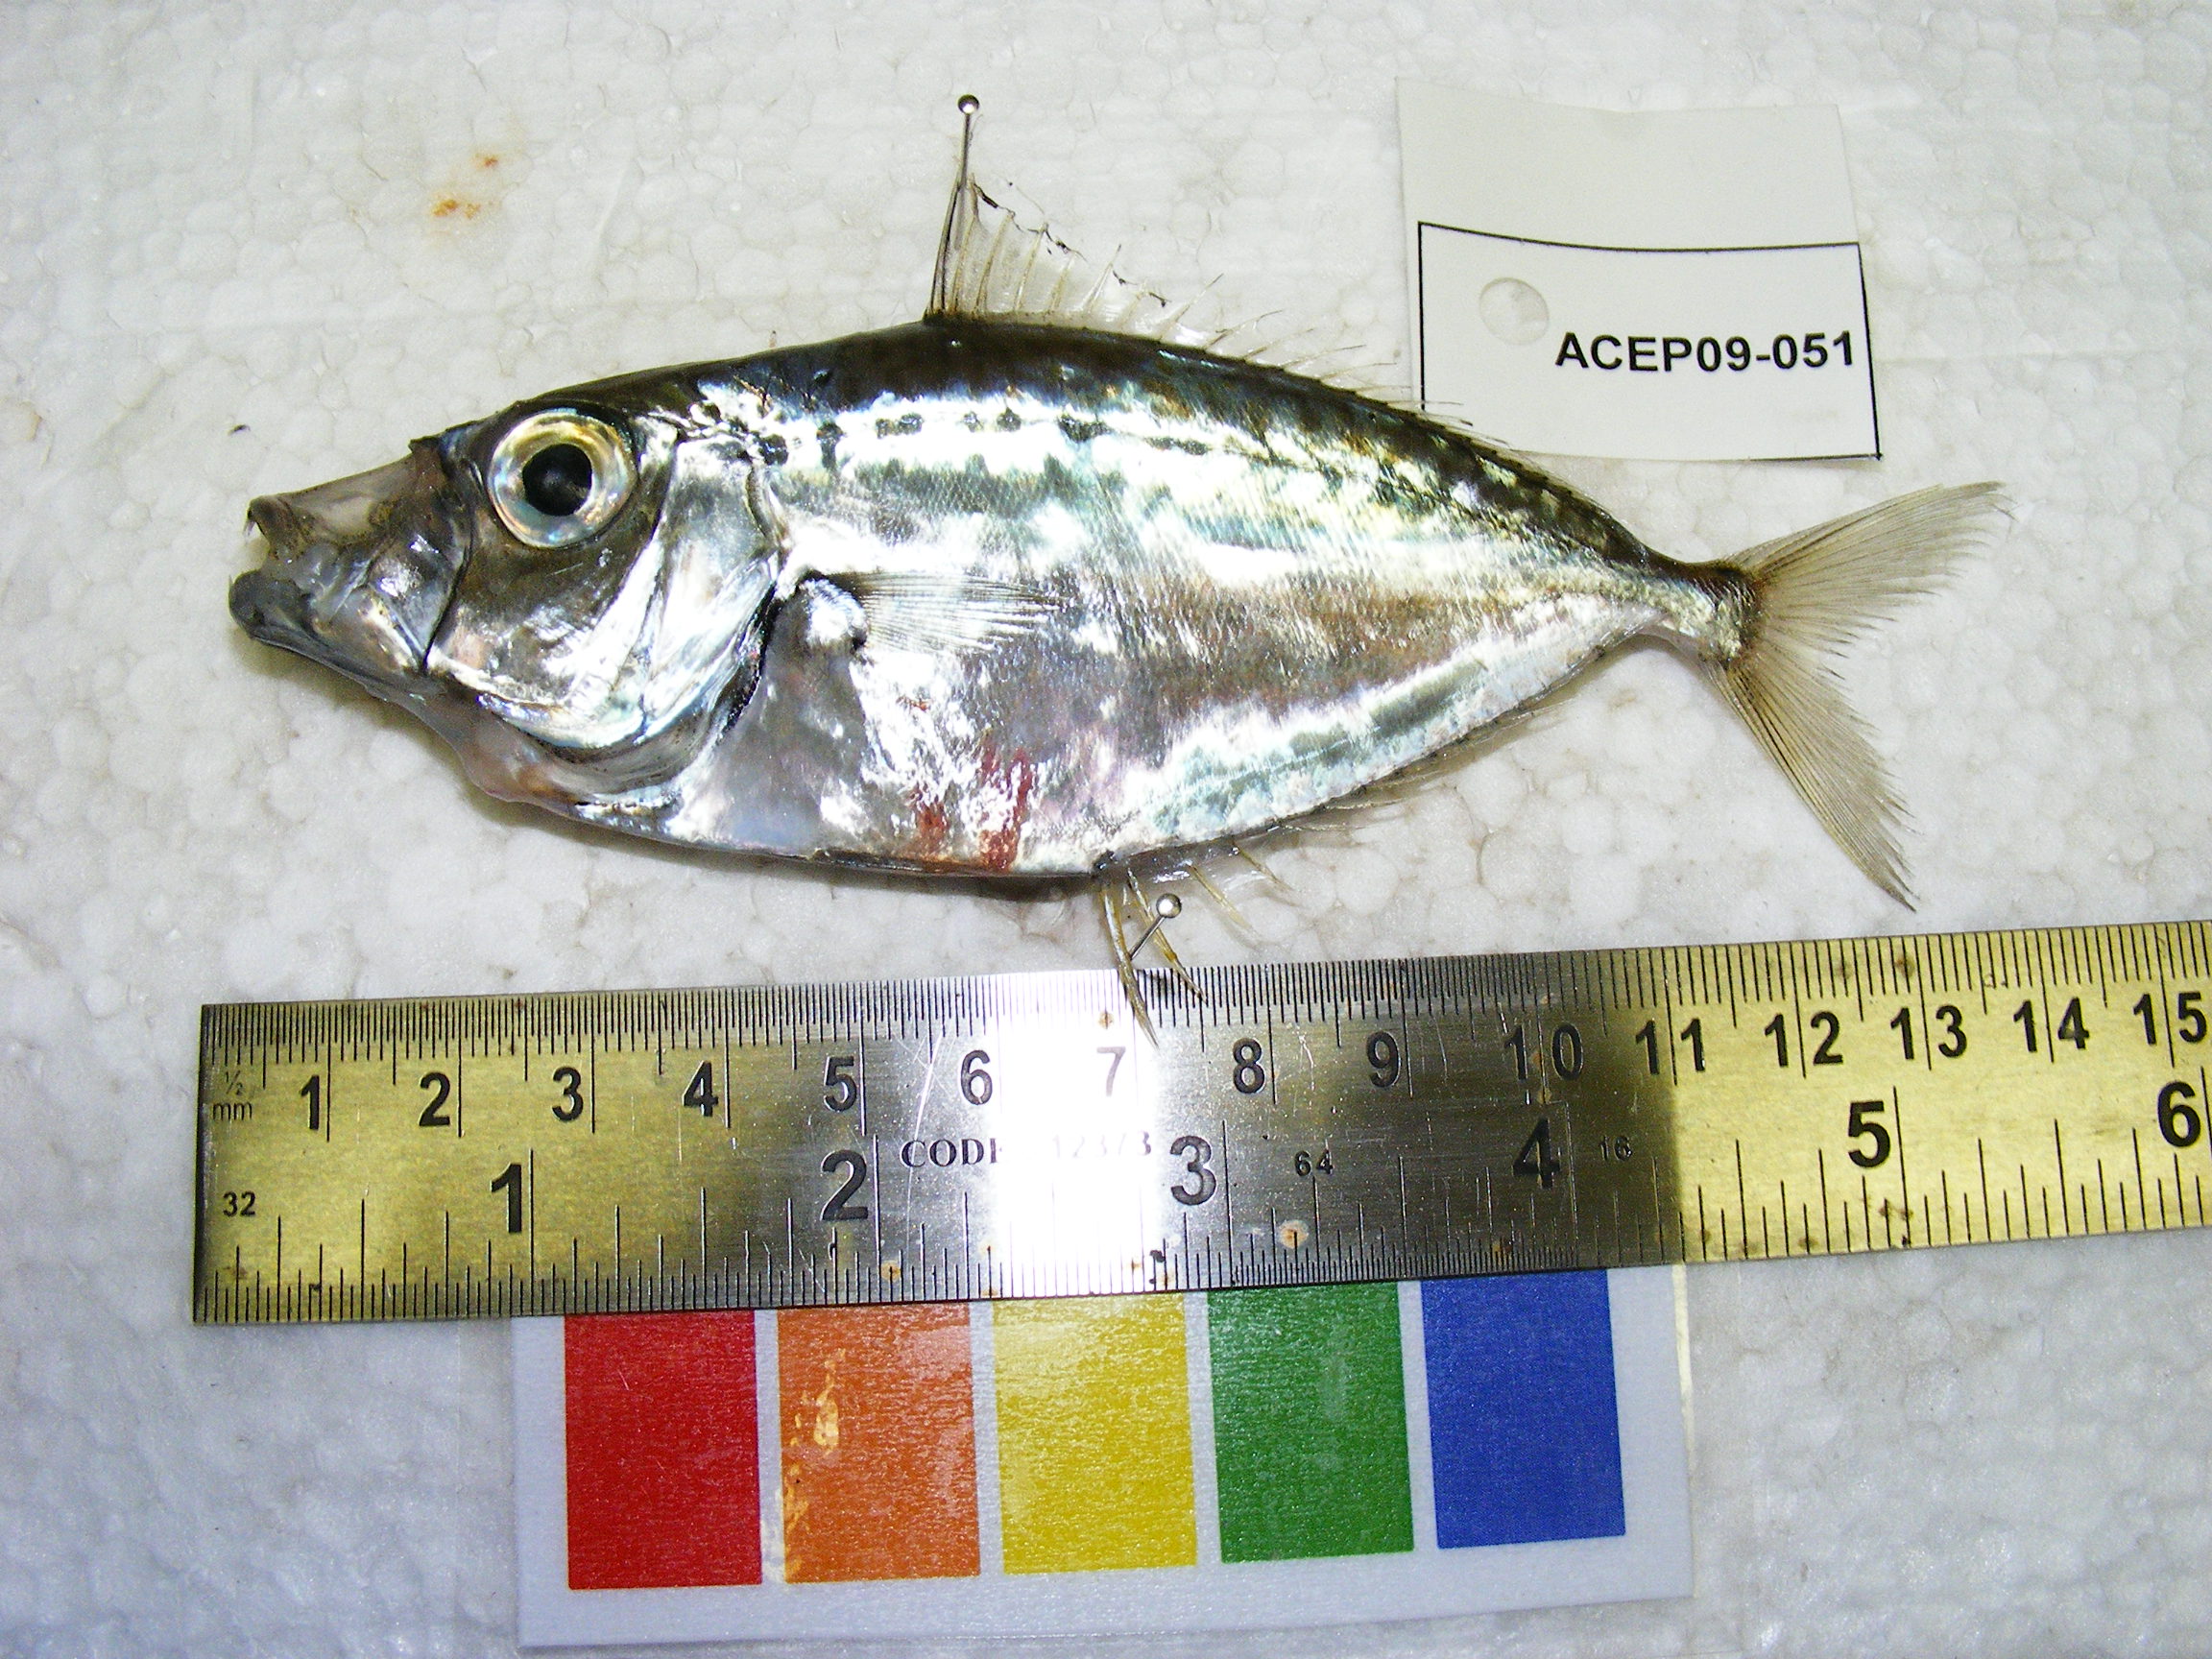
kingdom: Animalia
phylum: Chordata
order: Perciformes
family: Leiognathidae
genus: Gazza
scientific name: Gazza minuta
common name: Toothpony
